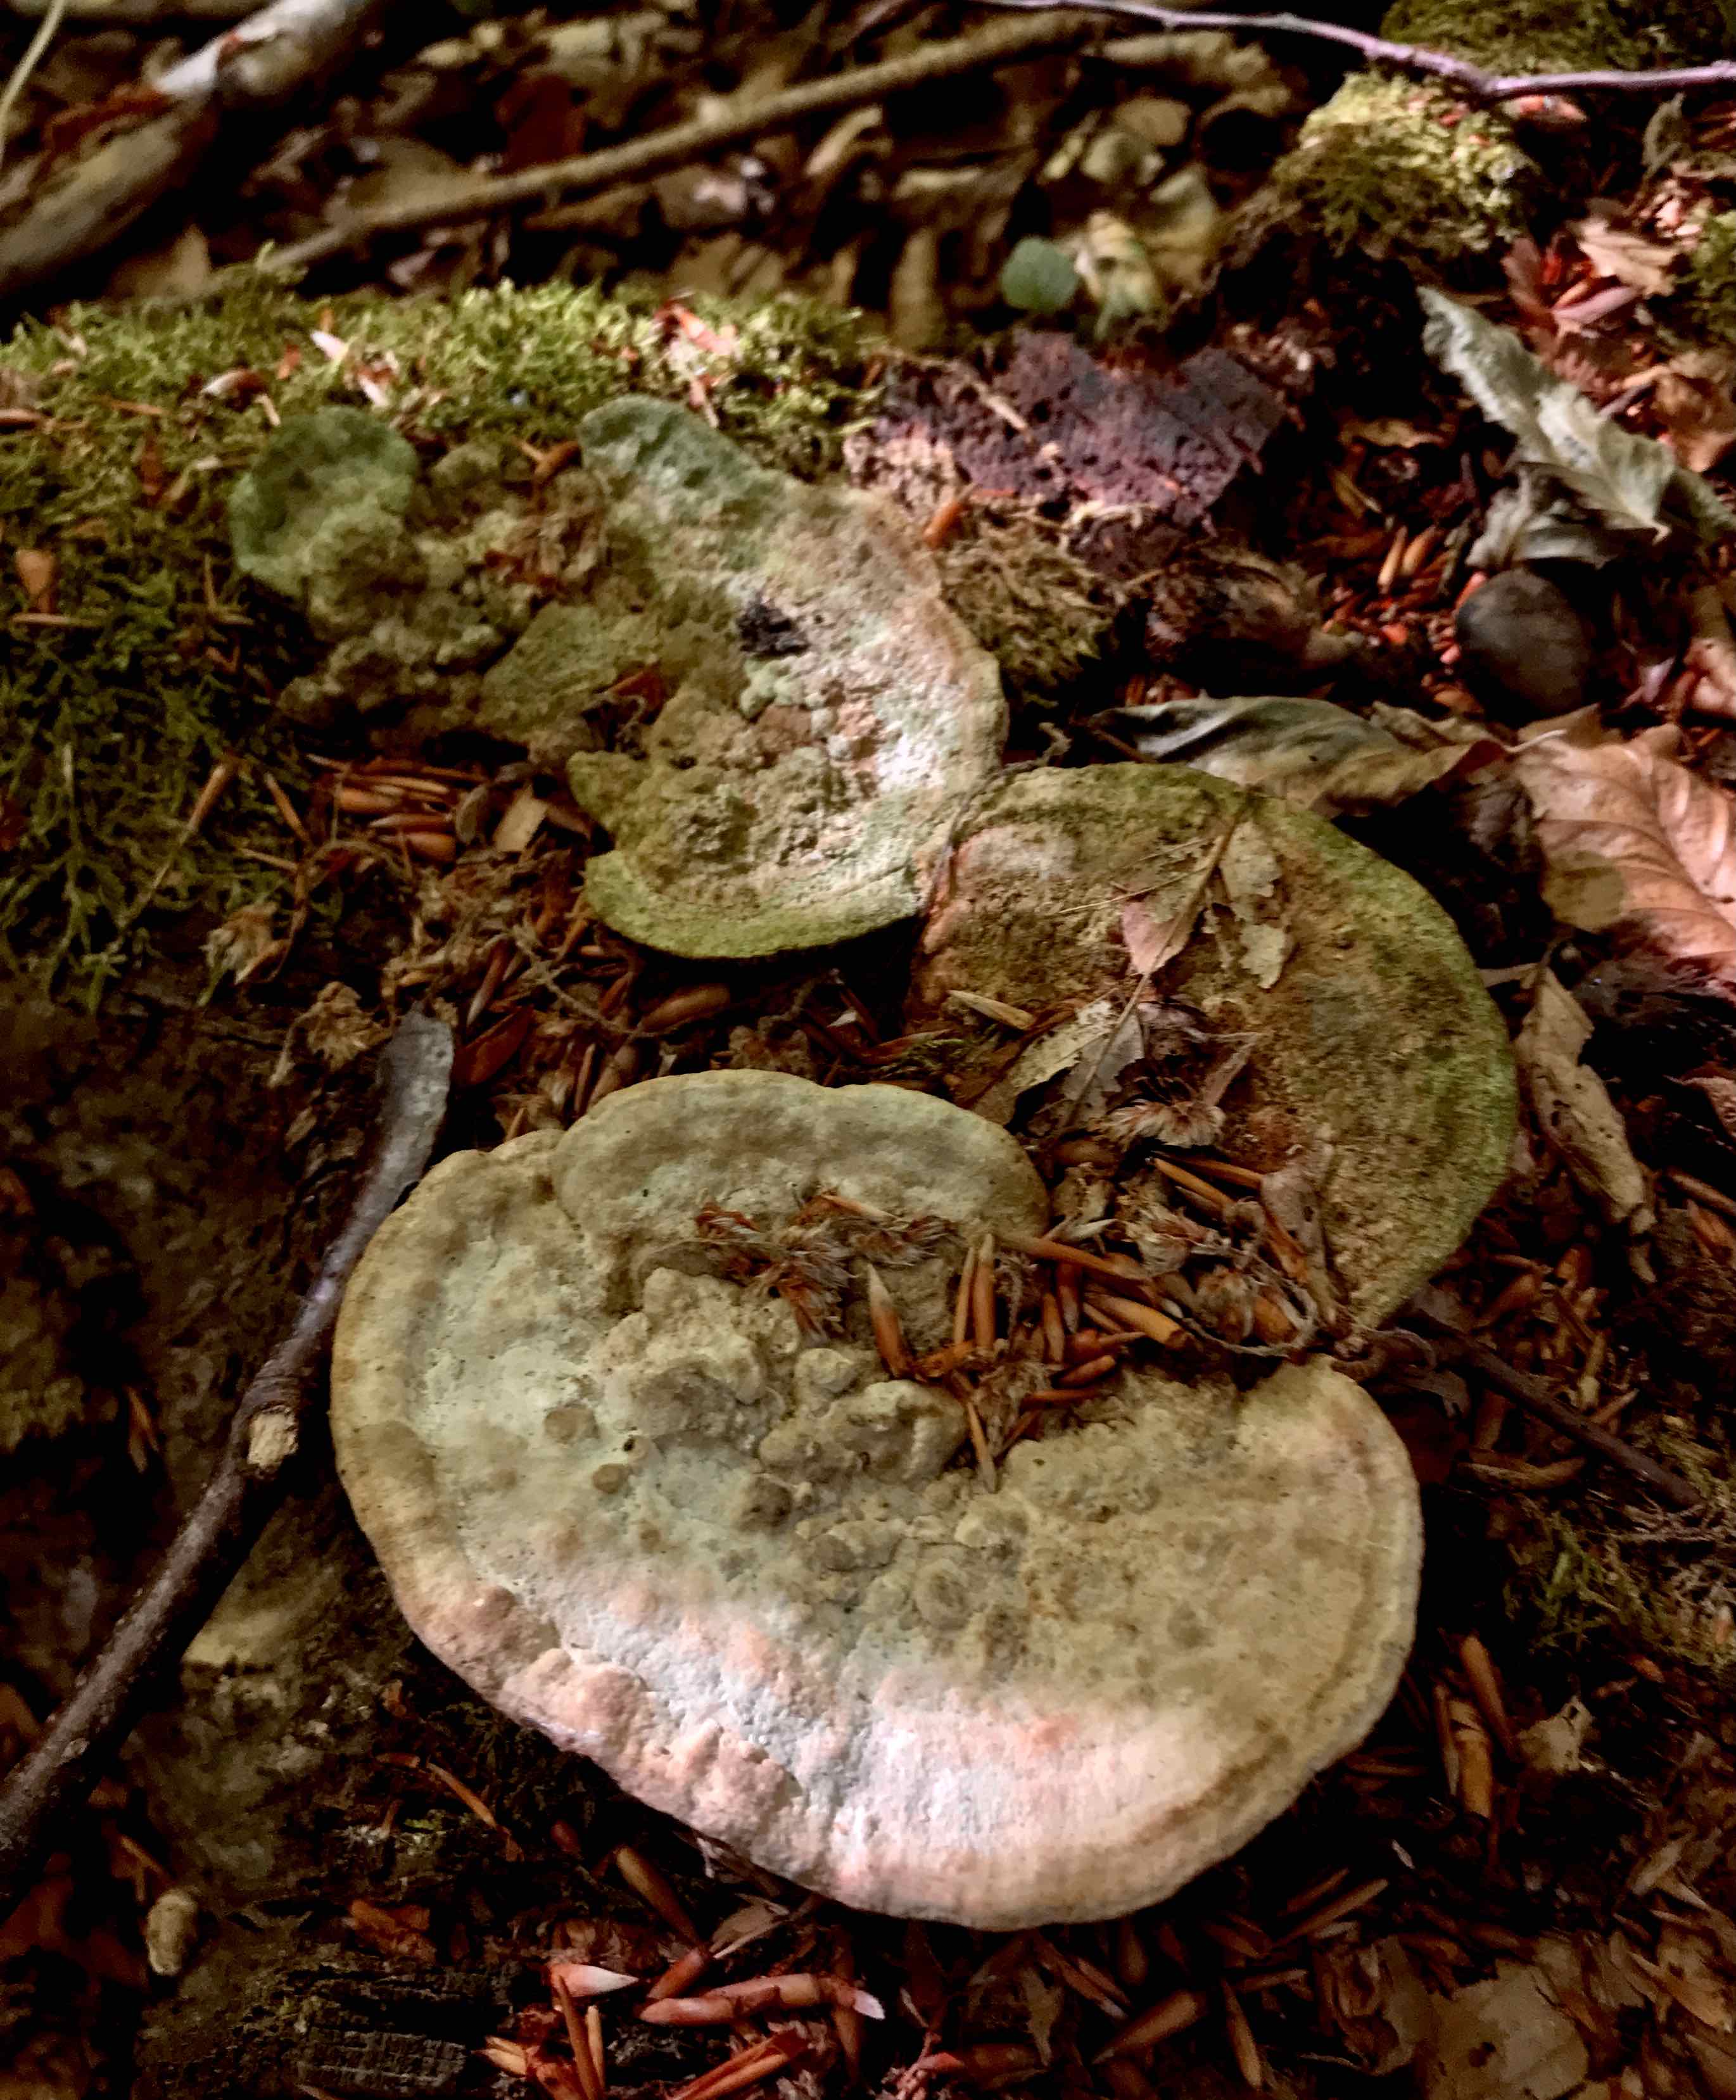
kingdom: Fungi
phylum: Basidiomycota
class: Agaricomycetes
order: Polyporales
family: Fomitopsidaceae
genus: Daedalea
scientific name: Daedalea quercina
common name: ege-labyrintsvamp
